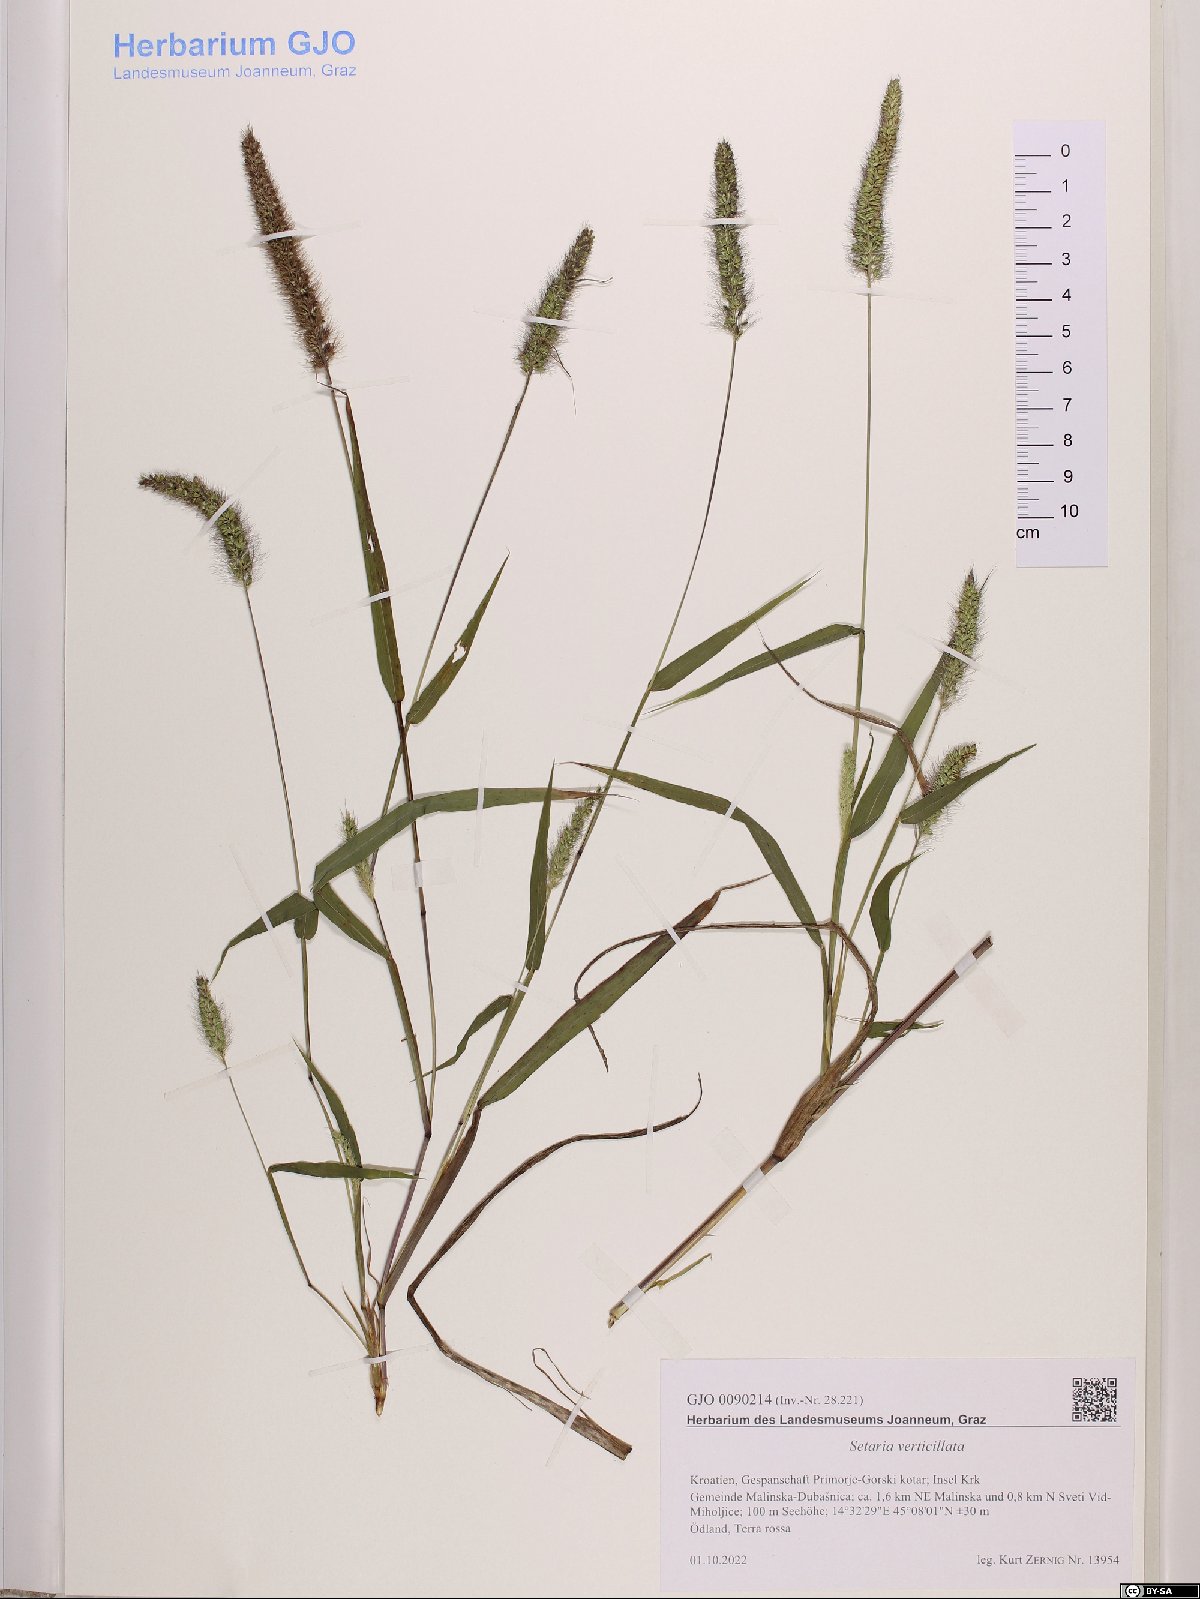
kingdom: Plantae
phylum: Tracheophyta
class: Liliopsida
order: Poales
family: Poaceae
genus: Setaria
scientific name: Setaria verticillata
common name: Hooked bristlegrass
